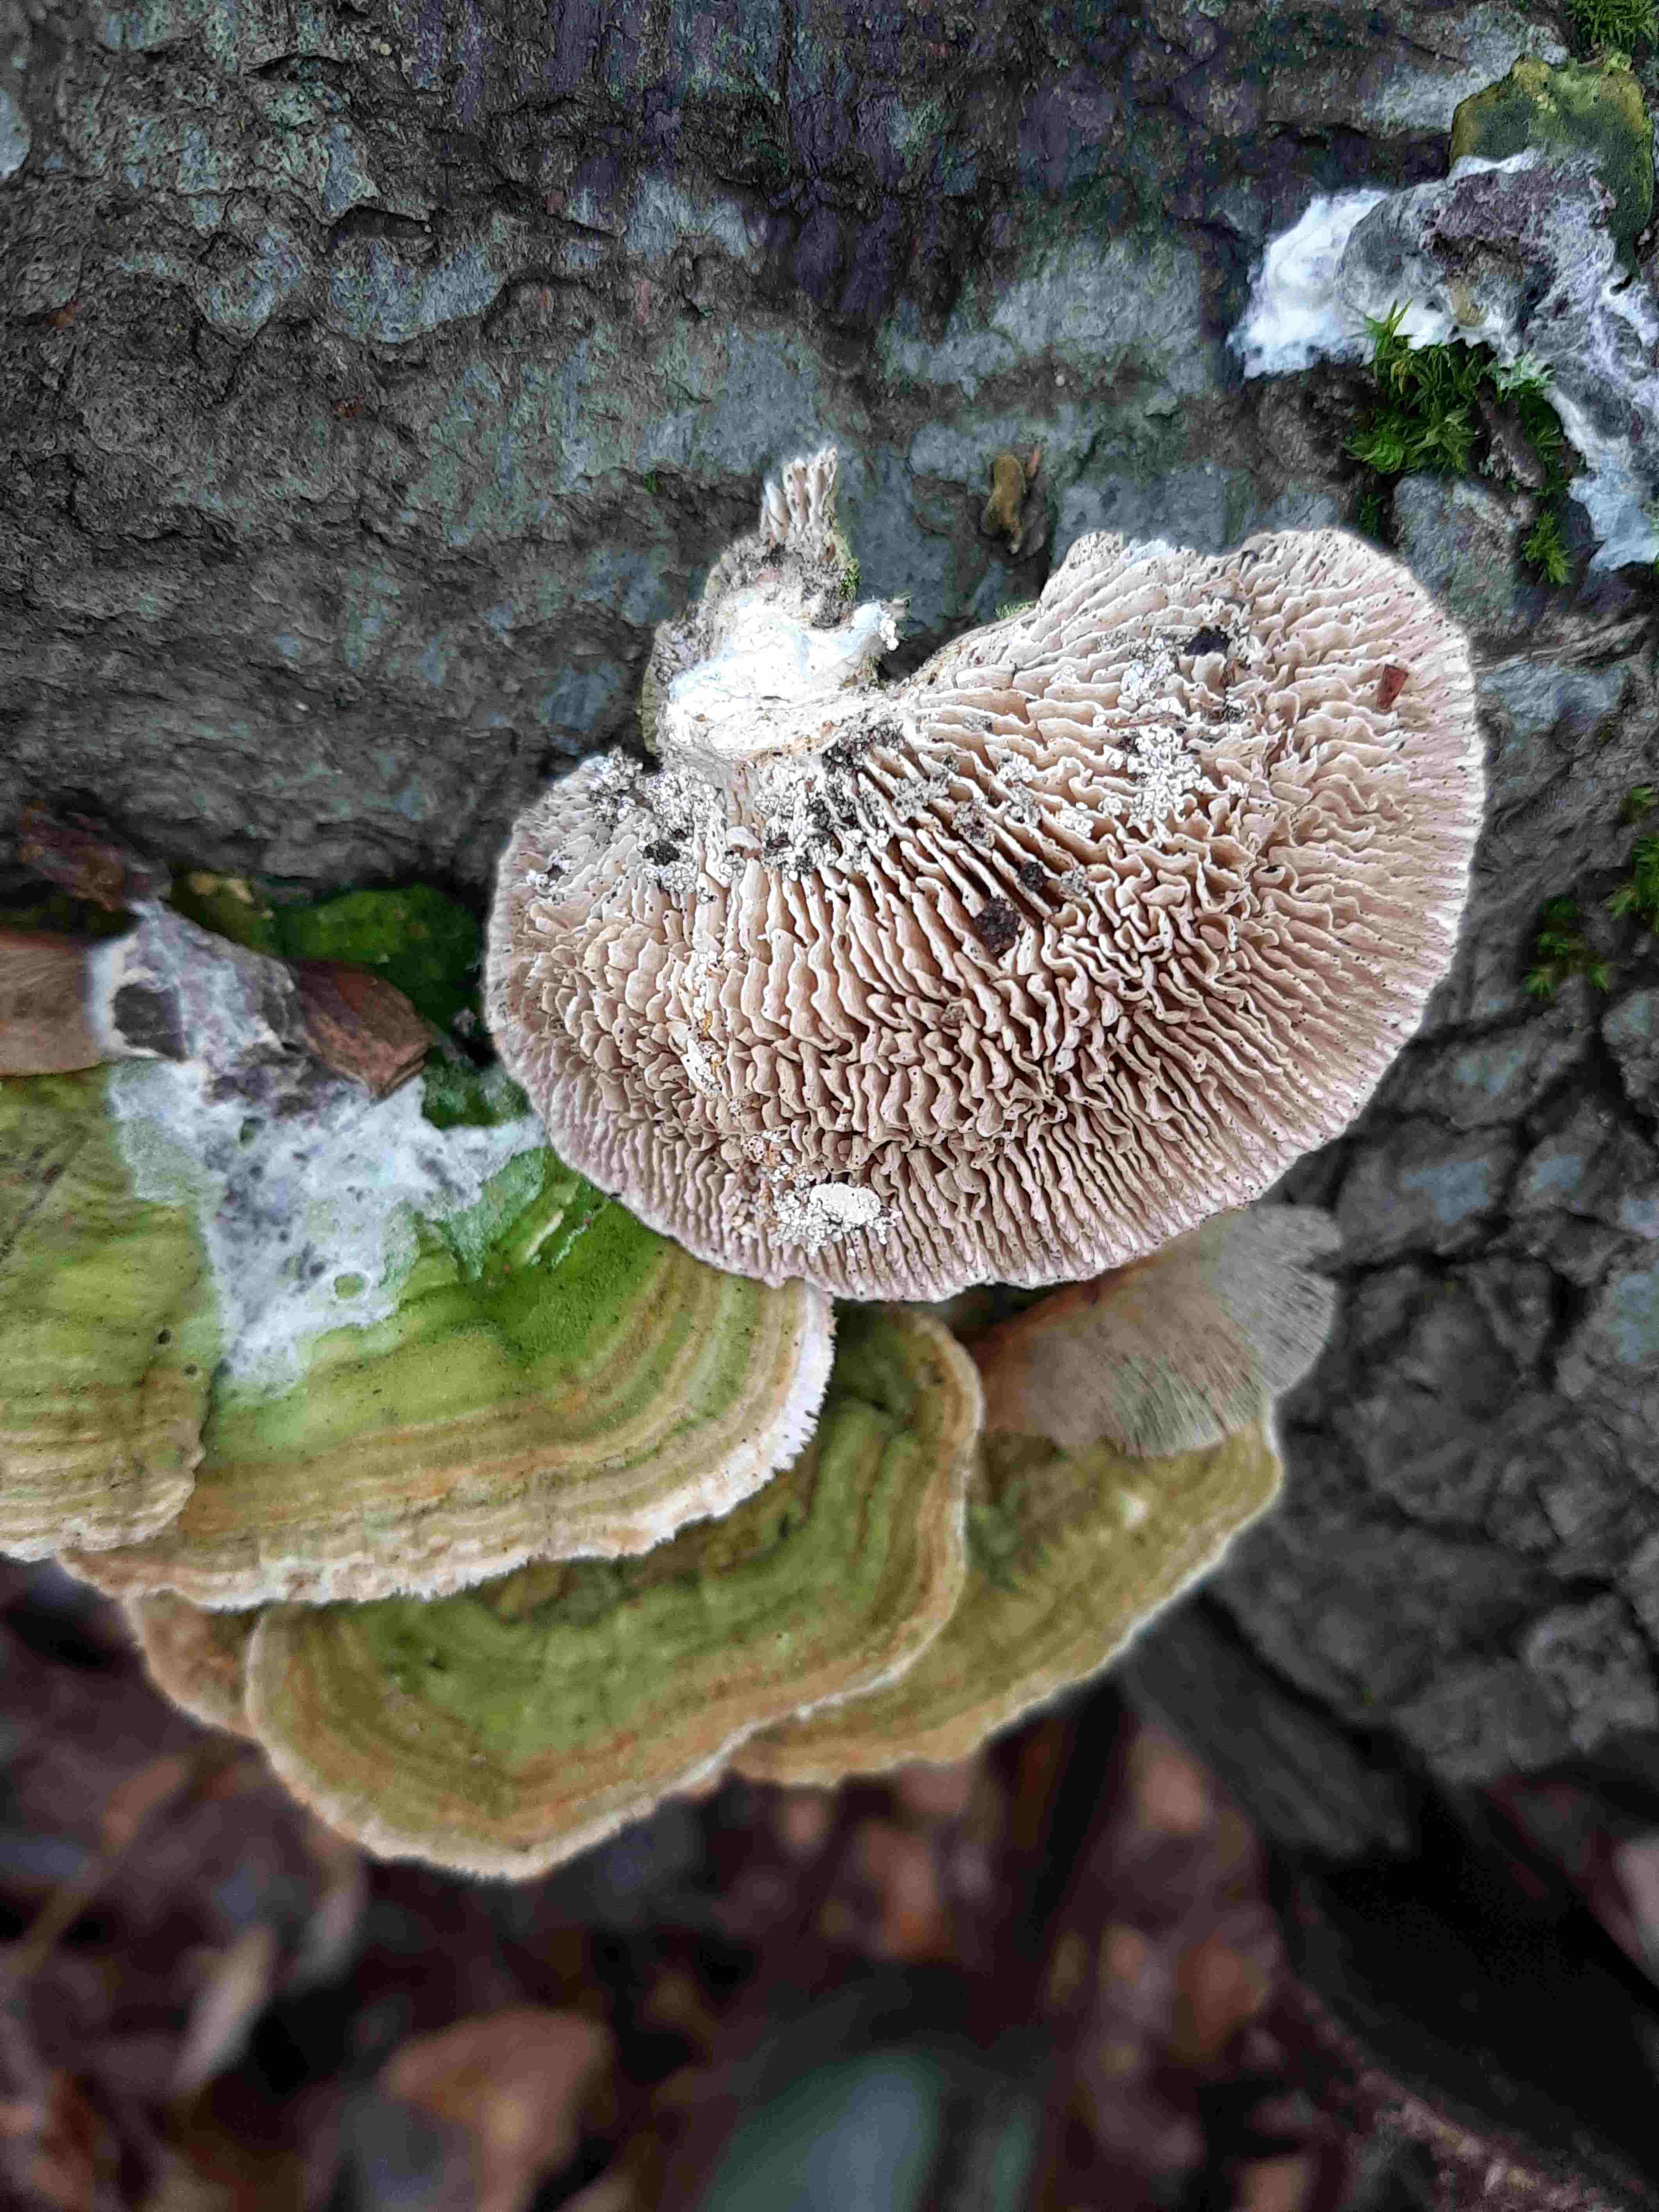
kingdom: Fungi
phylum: Basidiomycota
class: Agaricomycetes
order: Polyporales
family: Polyporaceae
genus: Lenzites
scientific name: Lenzites betulinus
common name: birke-læderporesvamp
